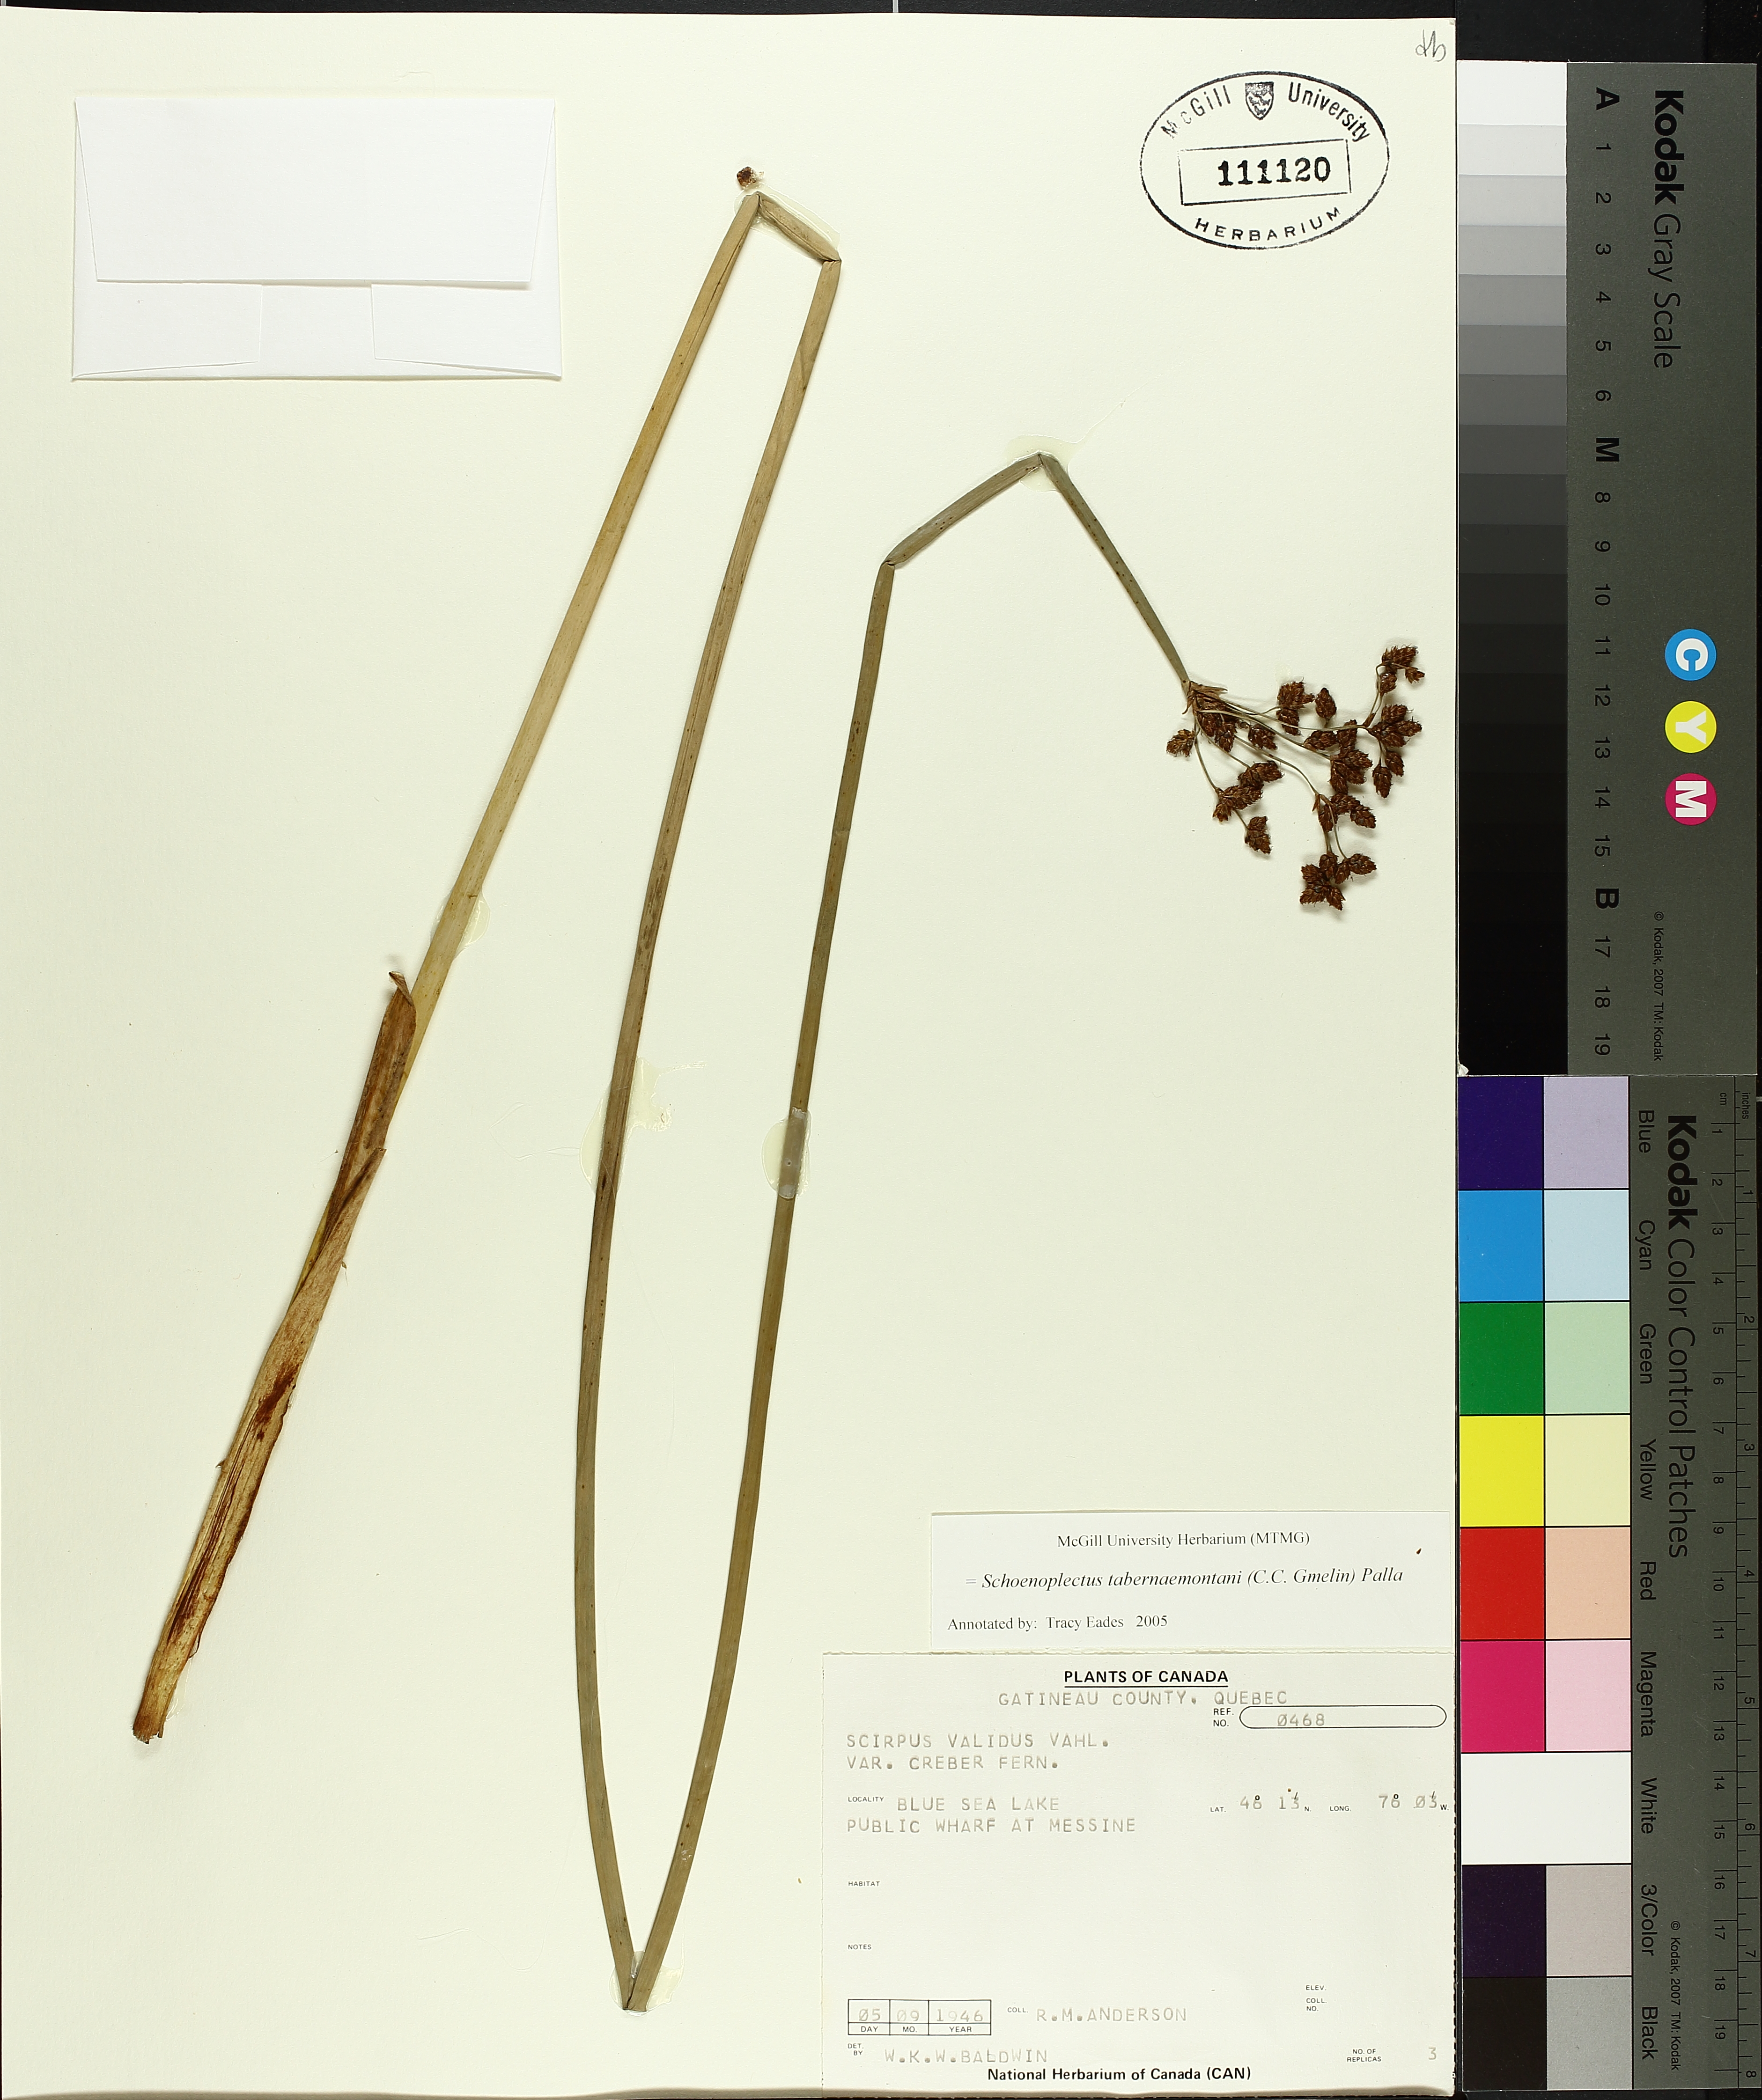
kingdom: Plantae
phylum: Tracheophyta
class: Liliopsida
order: Poales
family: Cyperaceae
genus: Schoenoplectus
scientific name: Schoenoplectus tabernaemontani
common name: Grey club-rush
